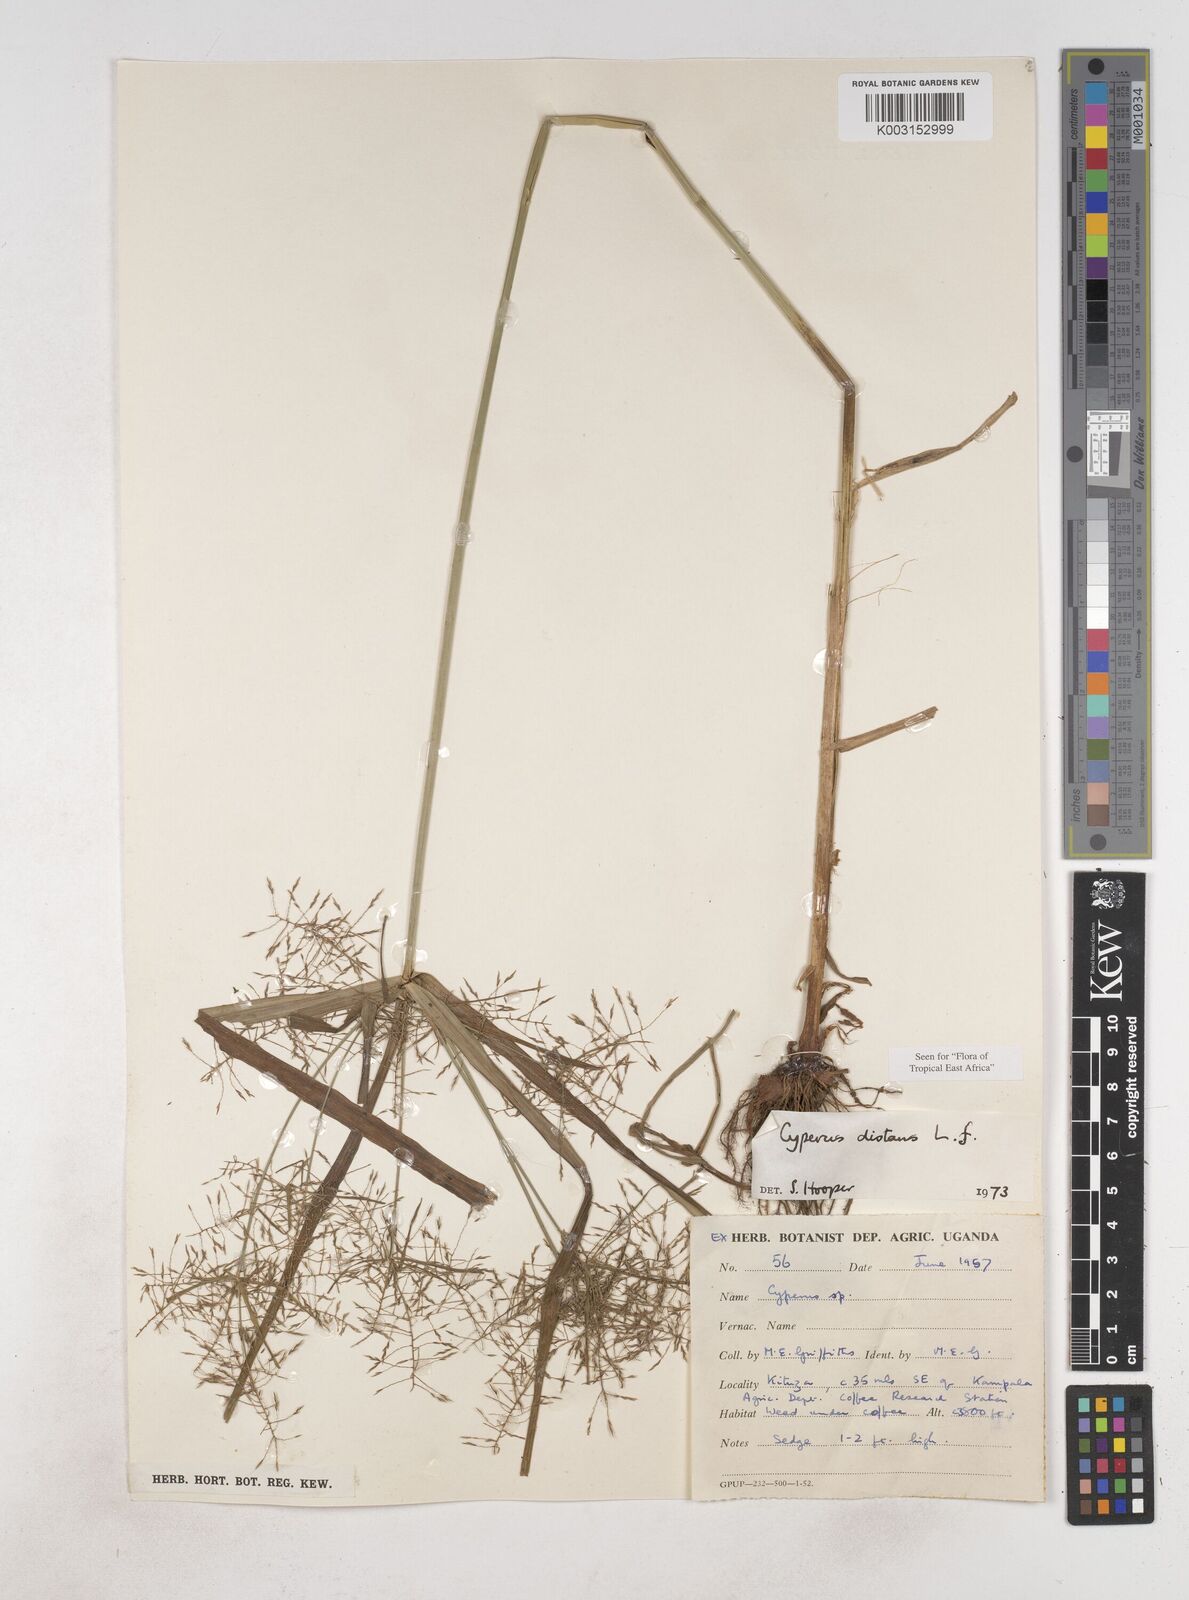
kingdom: Plantae
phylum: Tracheophyta
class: Liliopsida
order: Poales
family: Cyperaceae
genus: Cyperus
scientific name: Cyperus distans
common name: Slender cyperus
